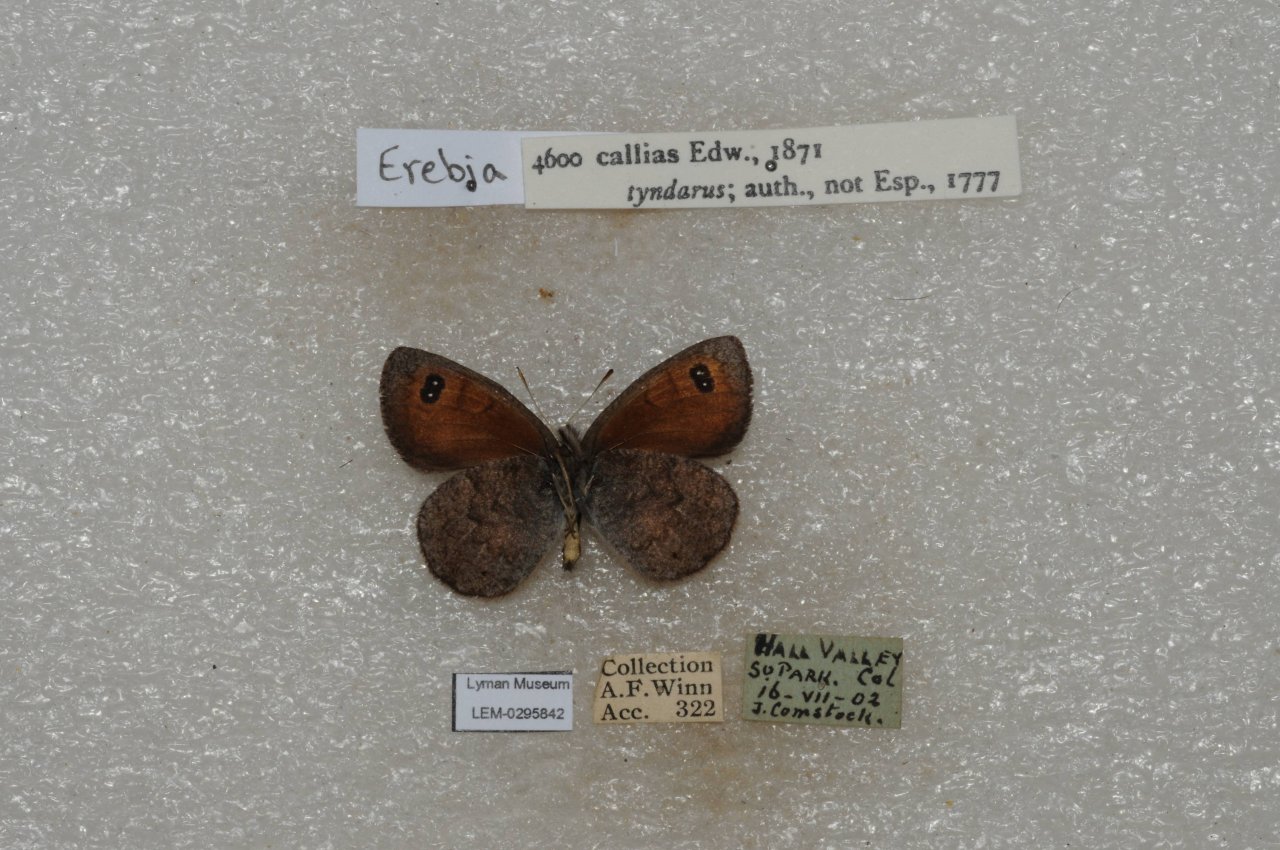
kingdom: Animalia
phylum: Arthropoda
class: Insecta
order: Lepidoptera
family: Nymphalidae
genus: Erebia
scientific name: Erebia tyndarus
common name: Colorado Alpine
